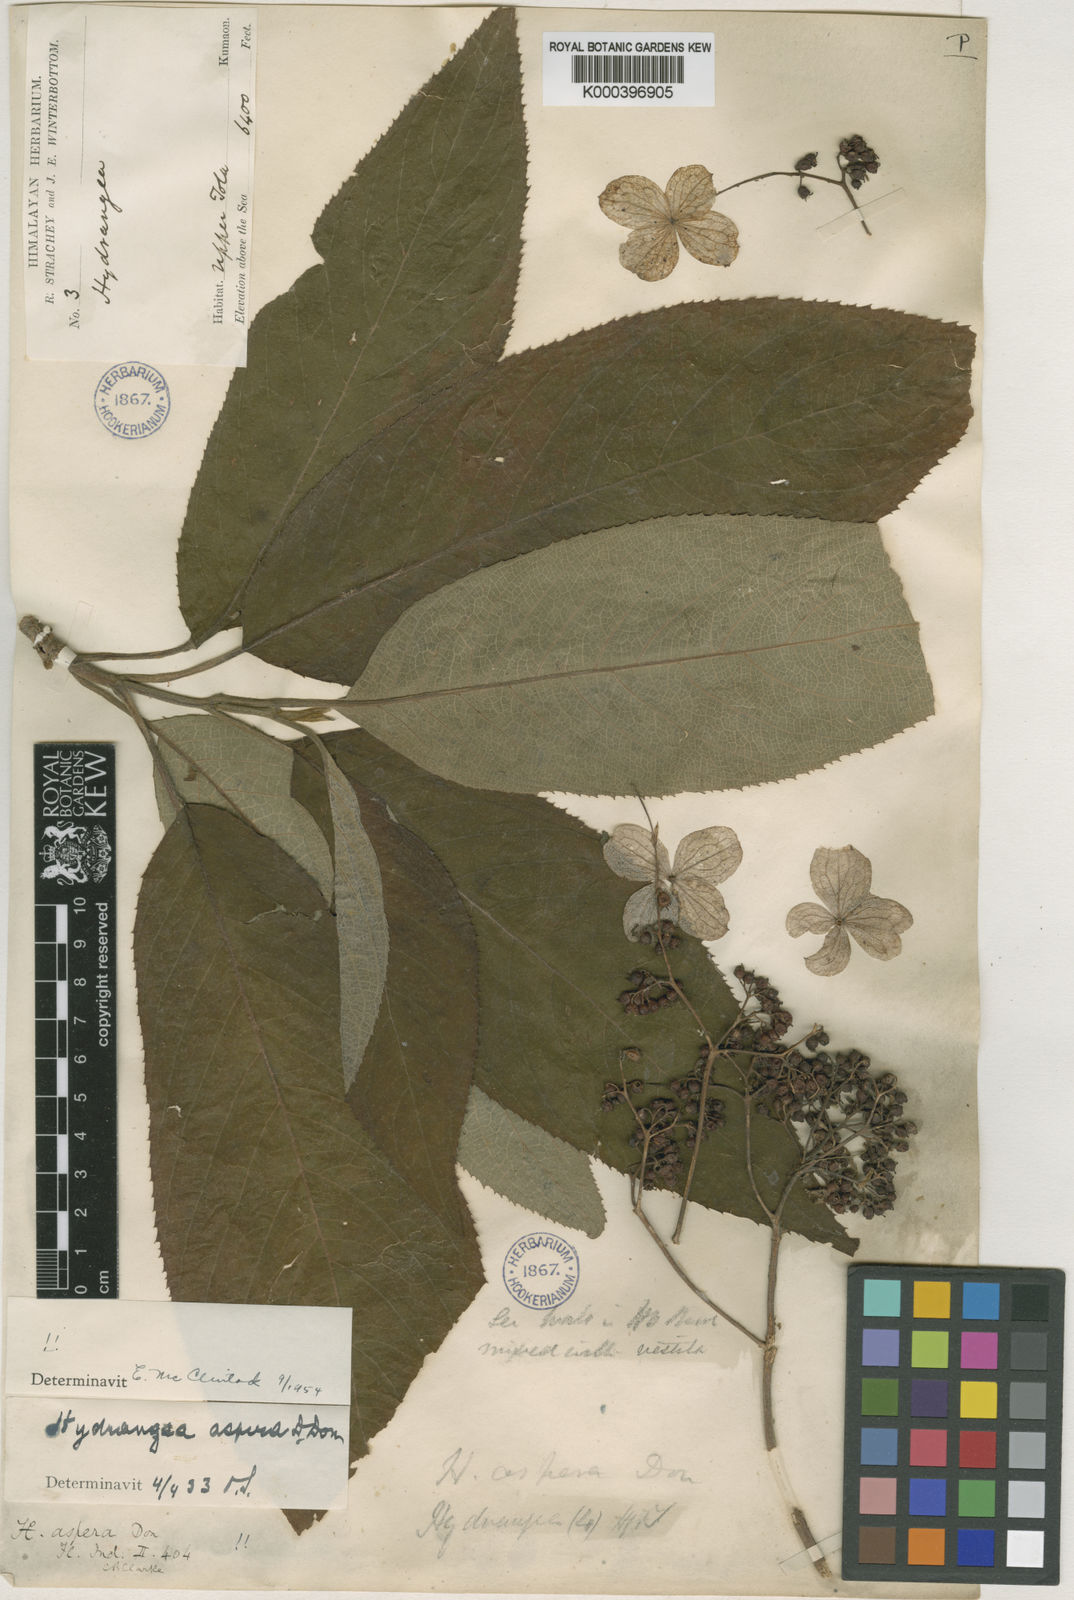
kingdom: Plantae
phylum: Tracheophyta
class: Magnoliopsida
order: Cornales
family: Hydrangeaceae
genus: Hydrangea
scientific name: Hydrangea aspera
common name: Rough-leaf hydrangea
